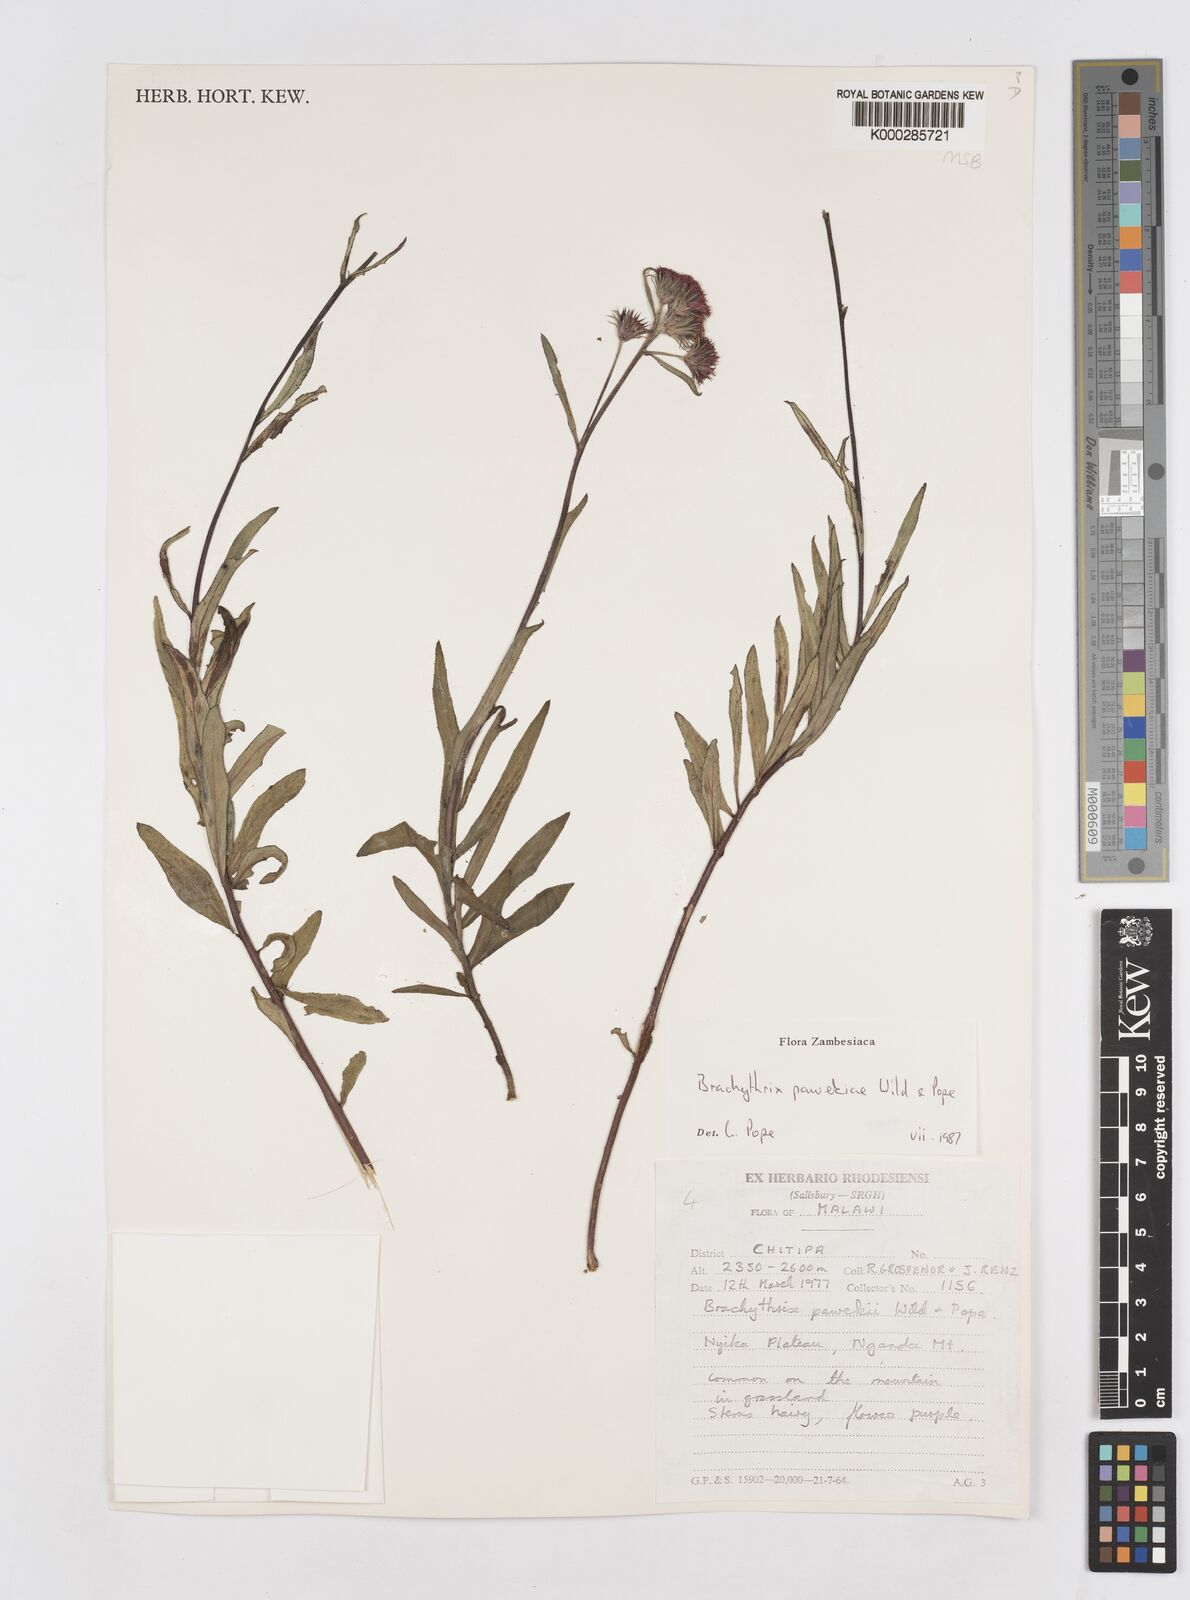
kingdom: Plantae
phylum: Tracheophyta
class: Magnoliopsida
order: Asterales
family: Asteraceae
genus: Brachythrix
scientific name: Brachythrix pawekiae
